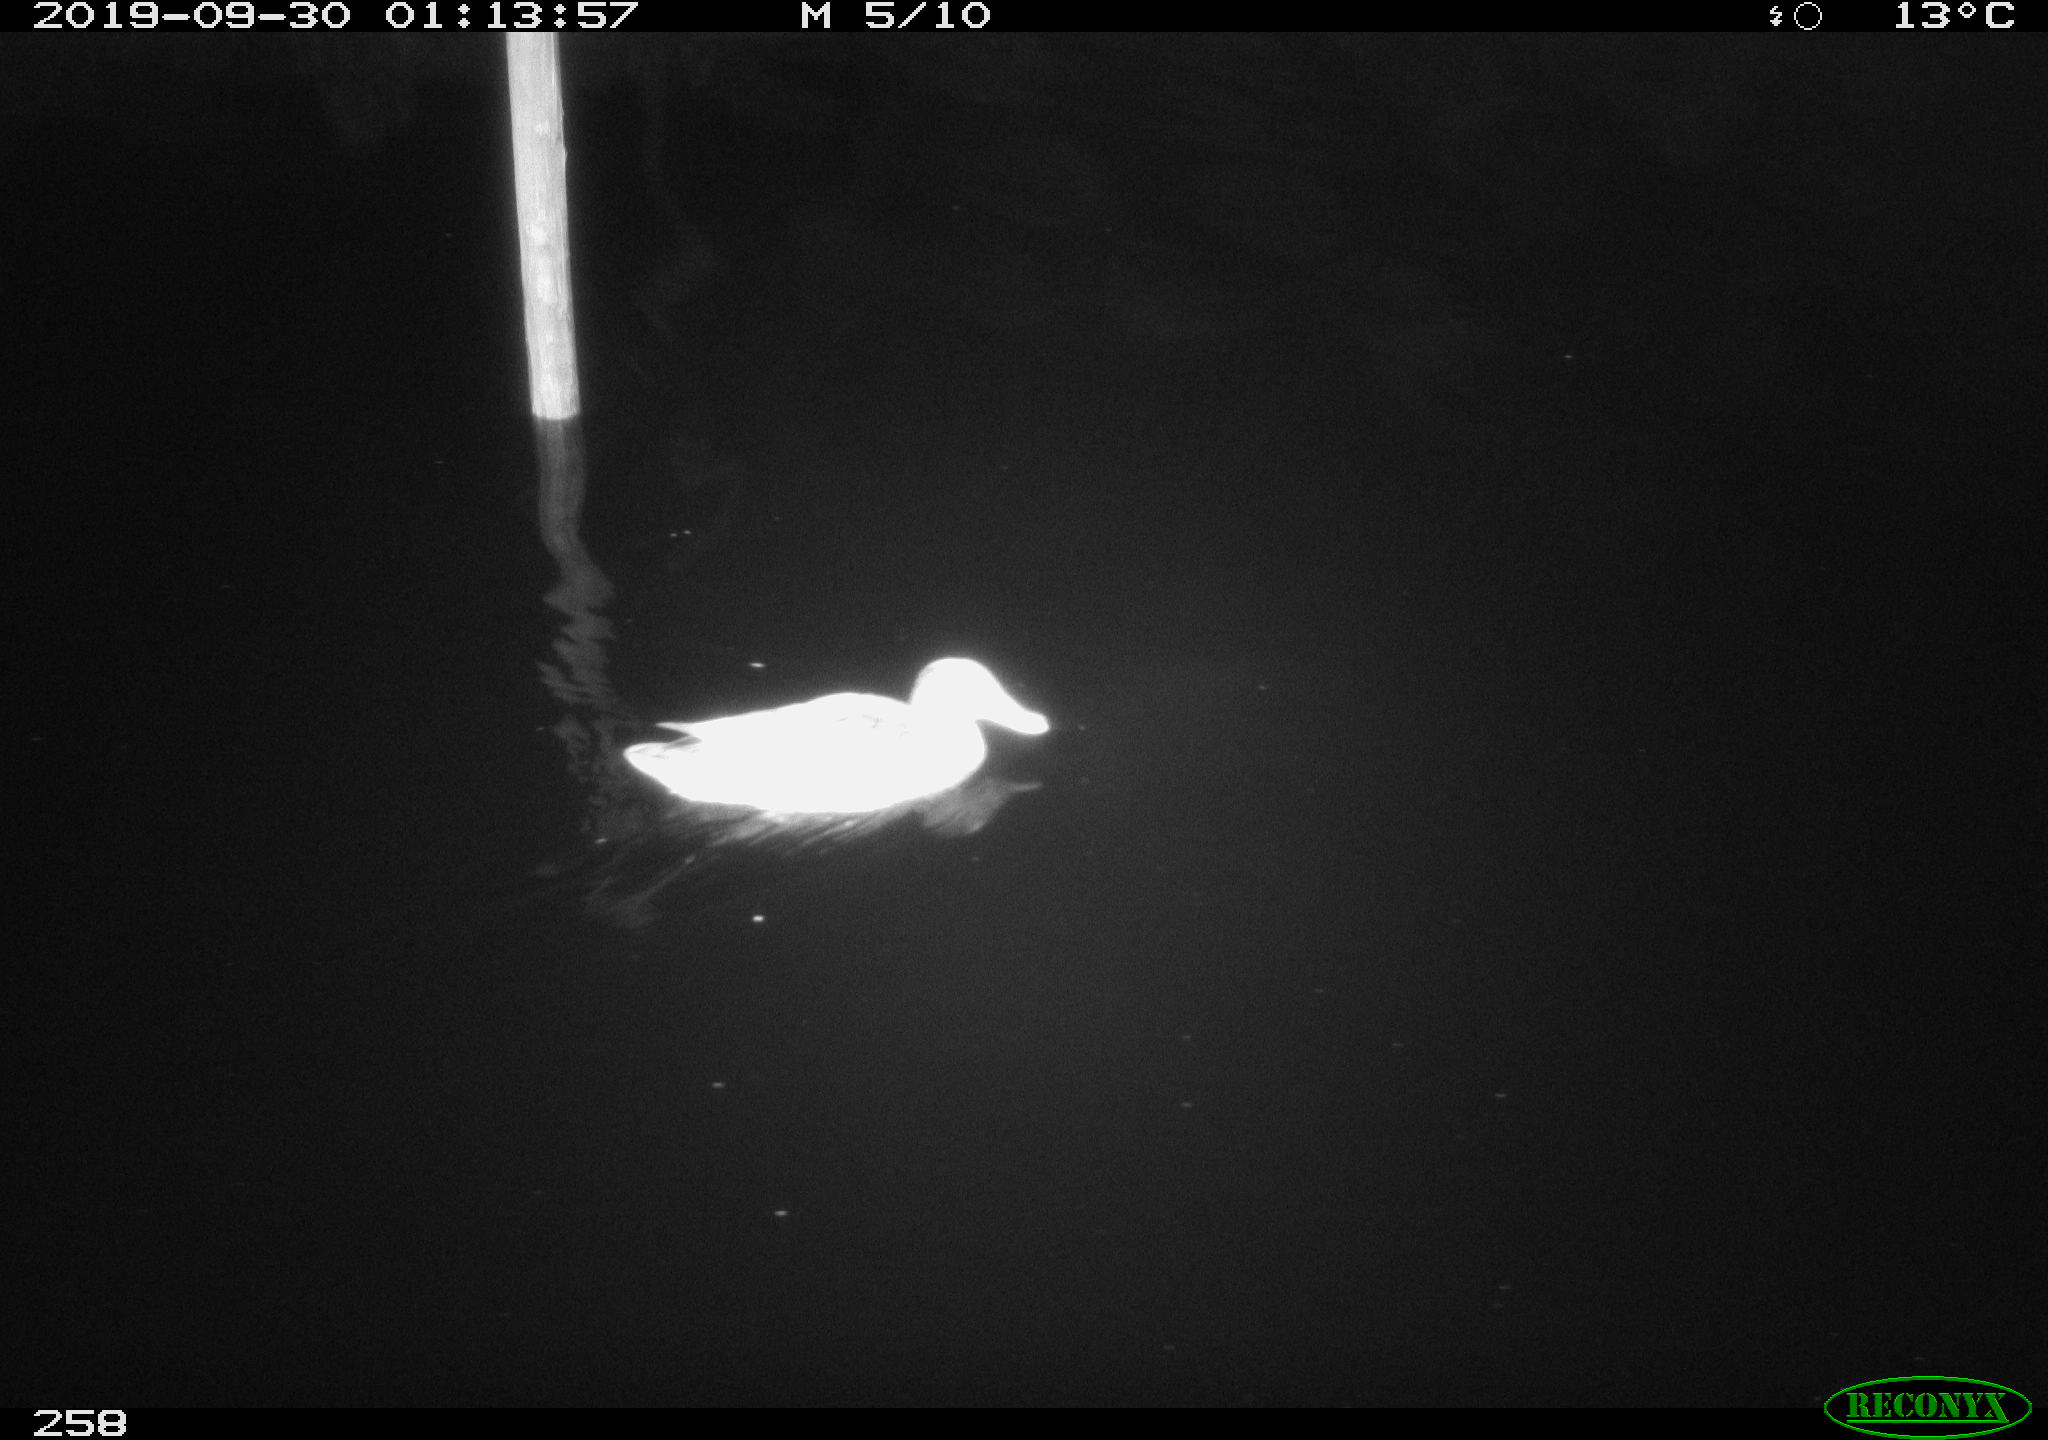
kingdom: Animalia
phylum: Chordata
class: Aves
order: Anseriformes
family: Anatidae
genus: Anas
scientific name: Anas platyrhynchos
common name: Mallard
